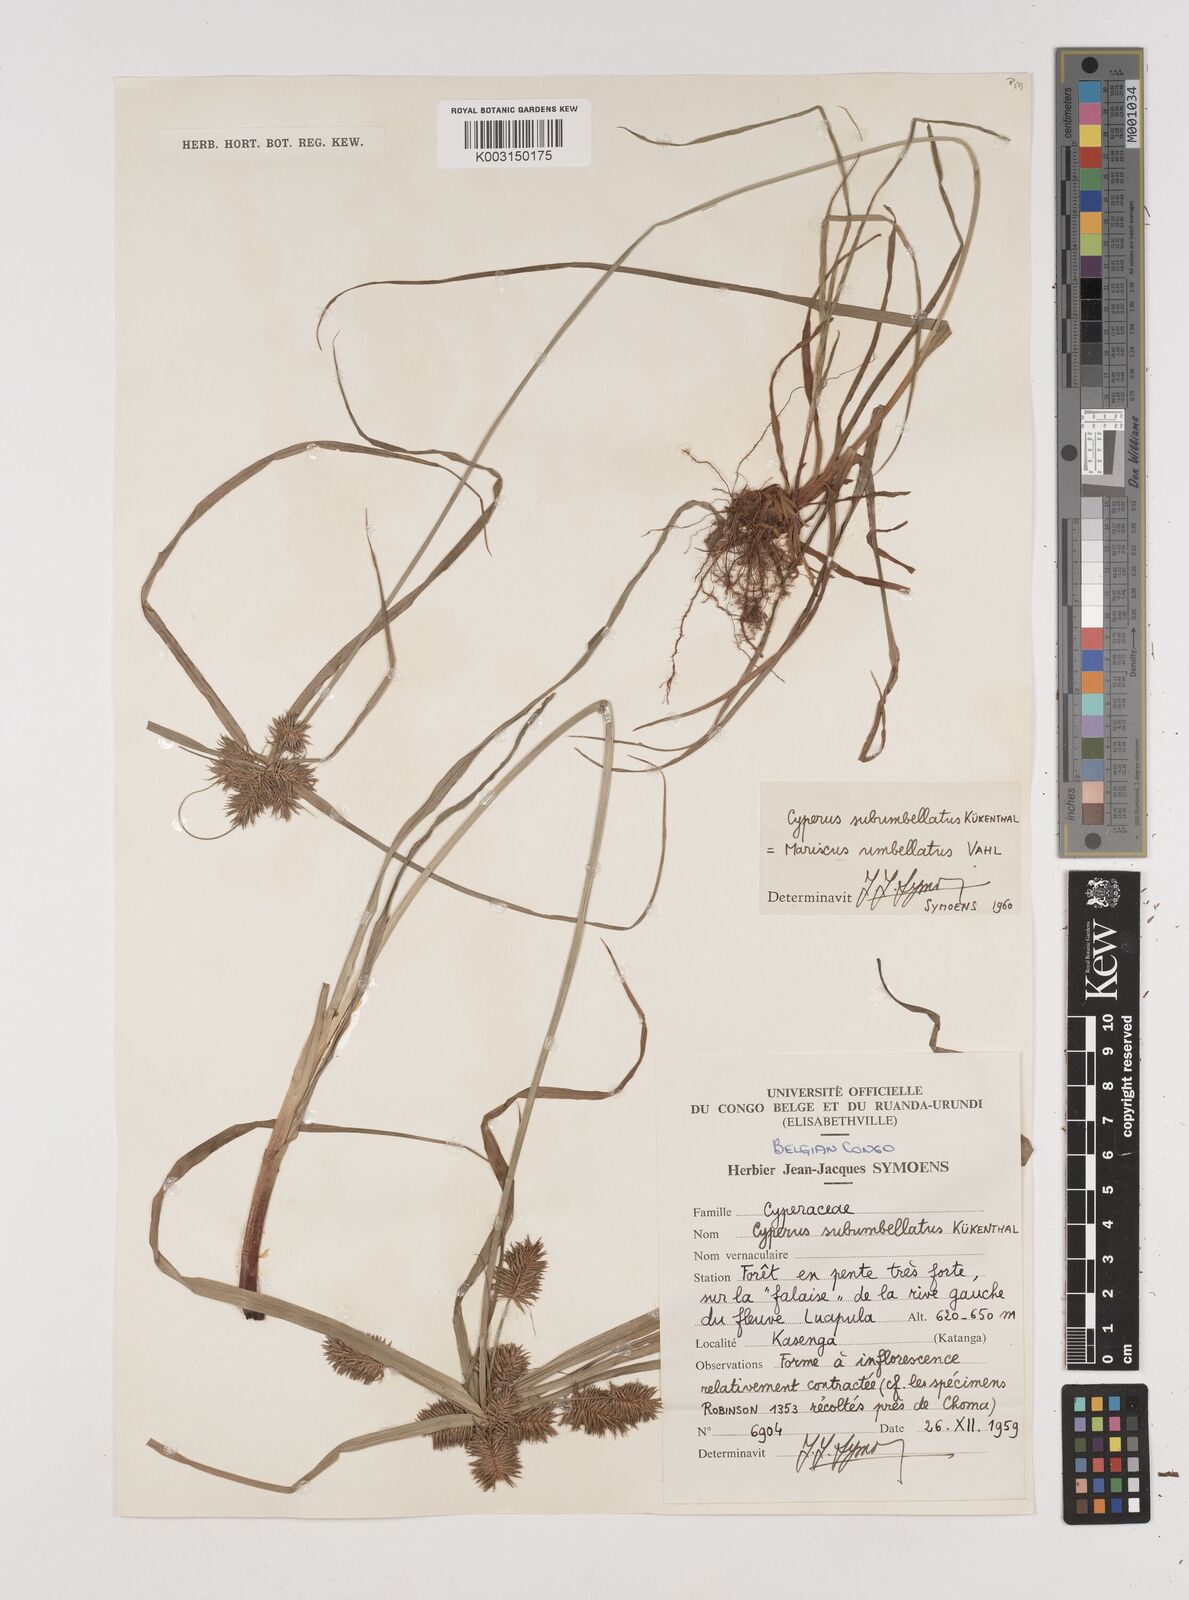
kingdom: Plantae
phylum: Tracheophyta
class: Liliopsida
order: Poales
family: Cyperaceae
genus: Cyperus
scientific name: Cyperus
